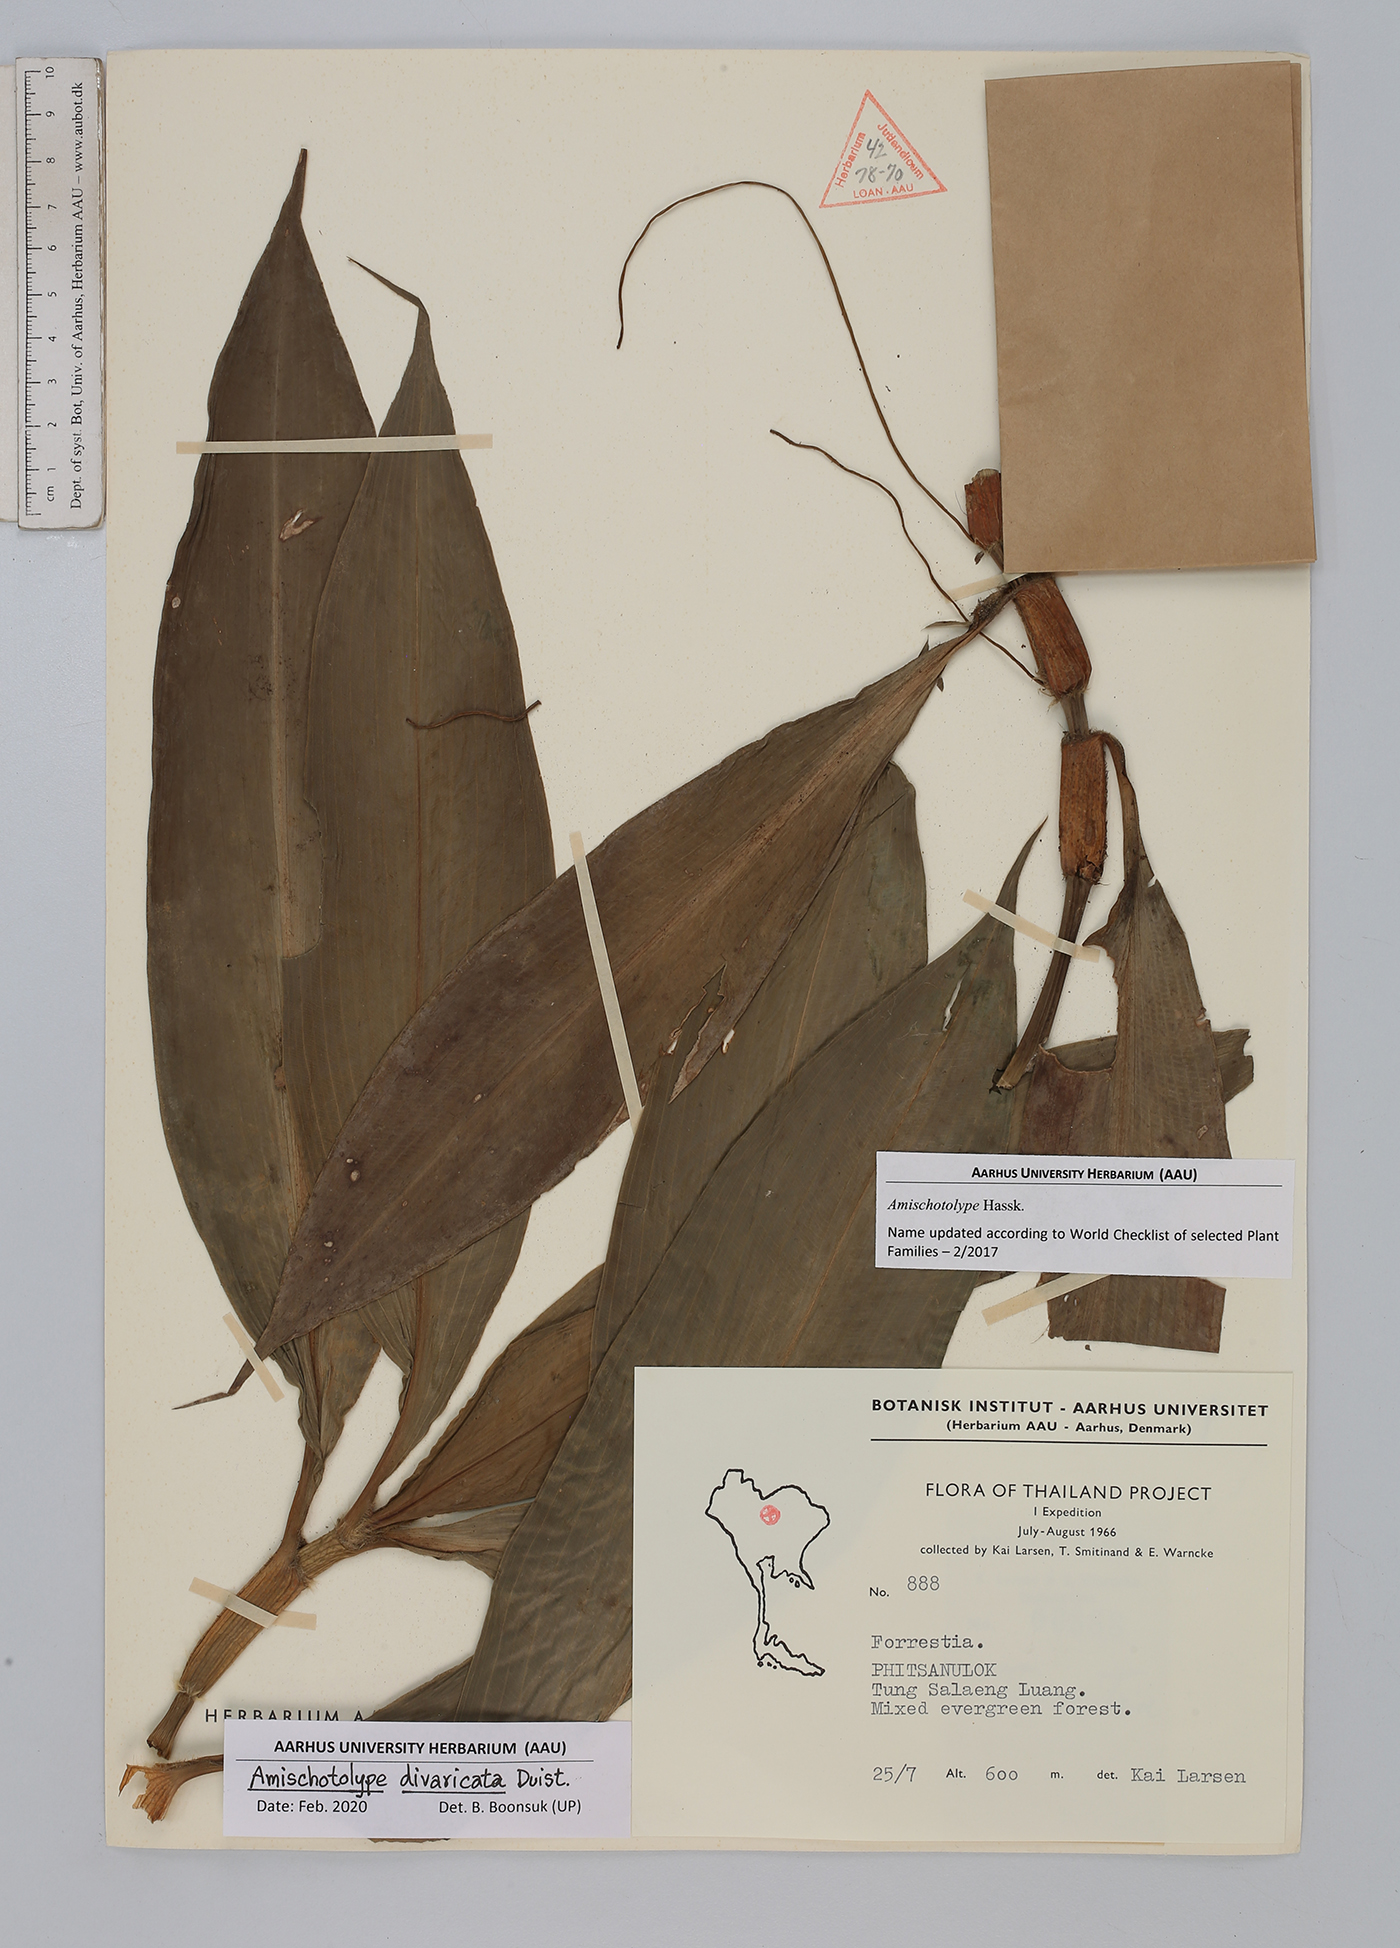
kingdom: Plantae
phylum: Tracheophyta
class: Liliopsida
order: Commelinales
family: Commelinaceae
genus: Amischotolype
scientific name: Amischotolype divaricata
